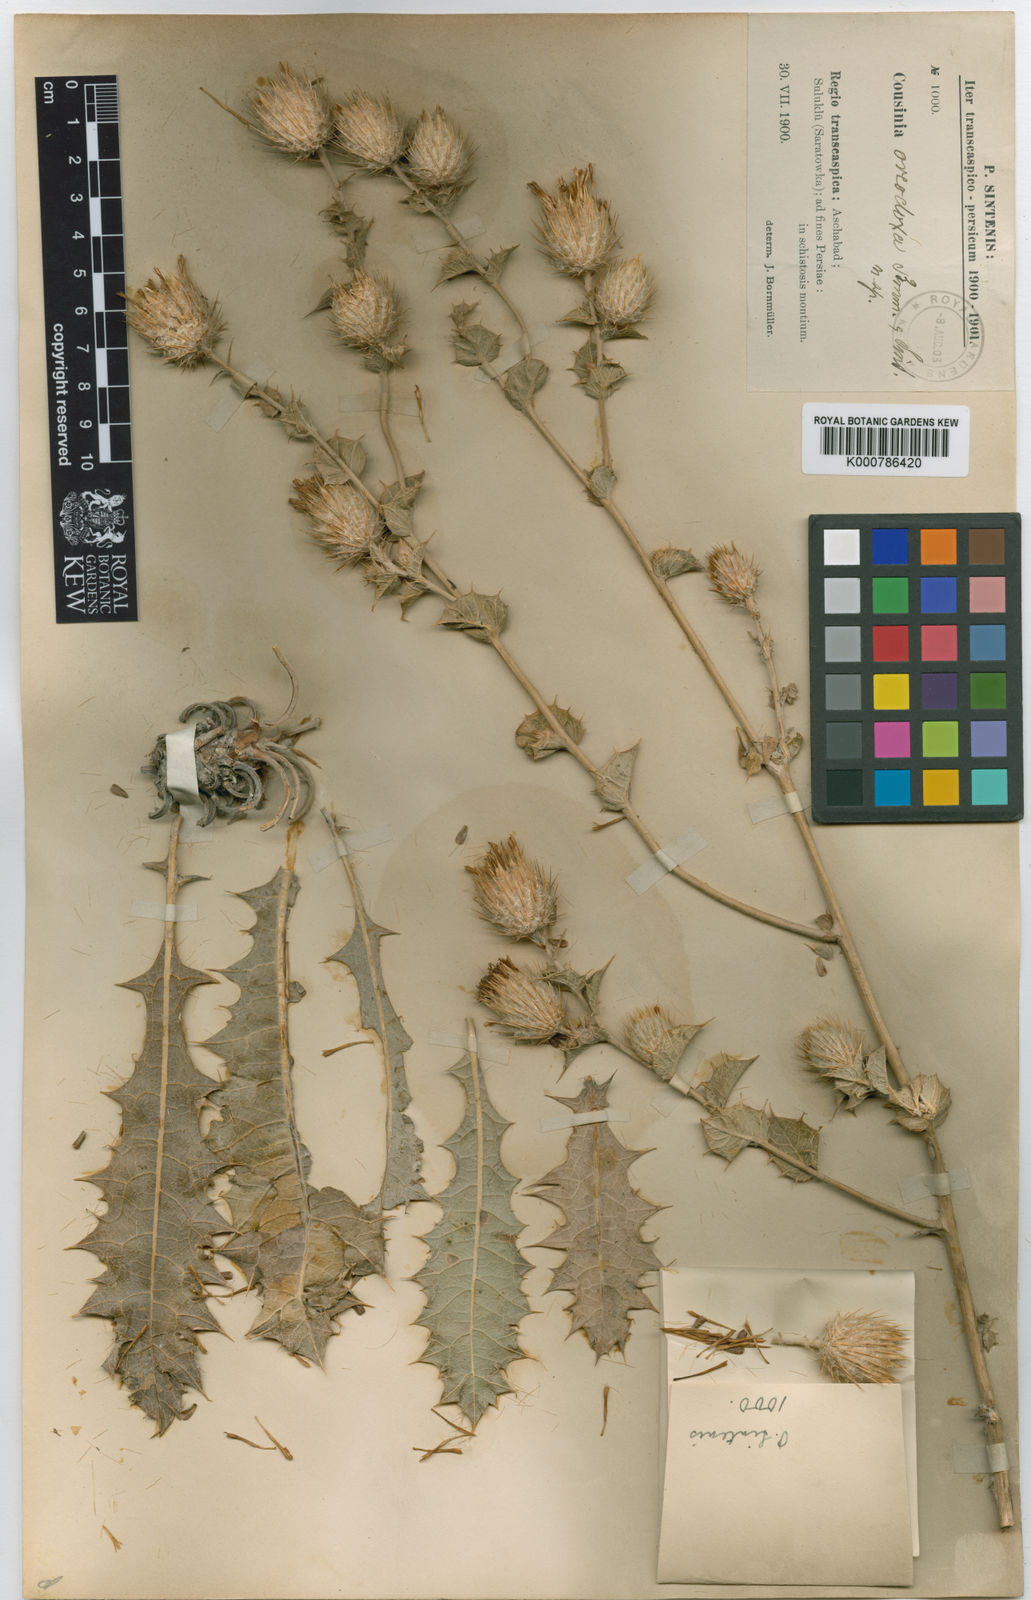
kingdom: Plantae
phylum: Tracheophyta
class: Magnoliopsida
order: Asterales
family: Asteraceae
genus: Cousinia
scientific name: Cousinia oreodoxa
